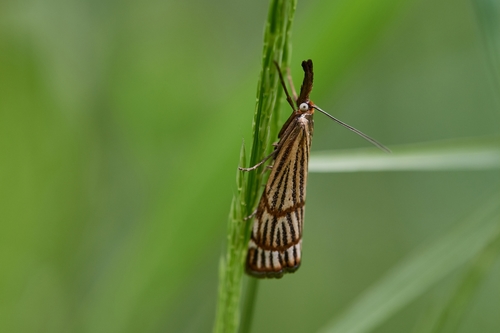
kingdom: Animalia
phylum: Arthropoda
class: Insecta
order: Lepidoptera
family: Crambidae
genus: Chrysocrambus
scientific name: Chrysocrambus dentuellus
